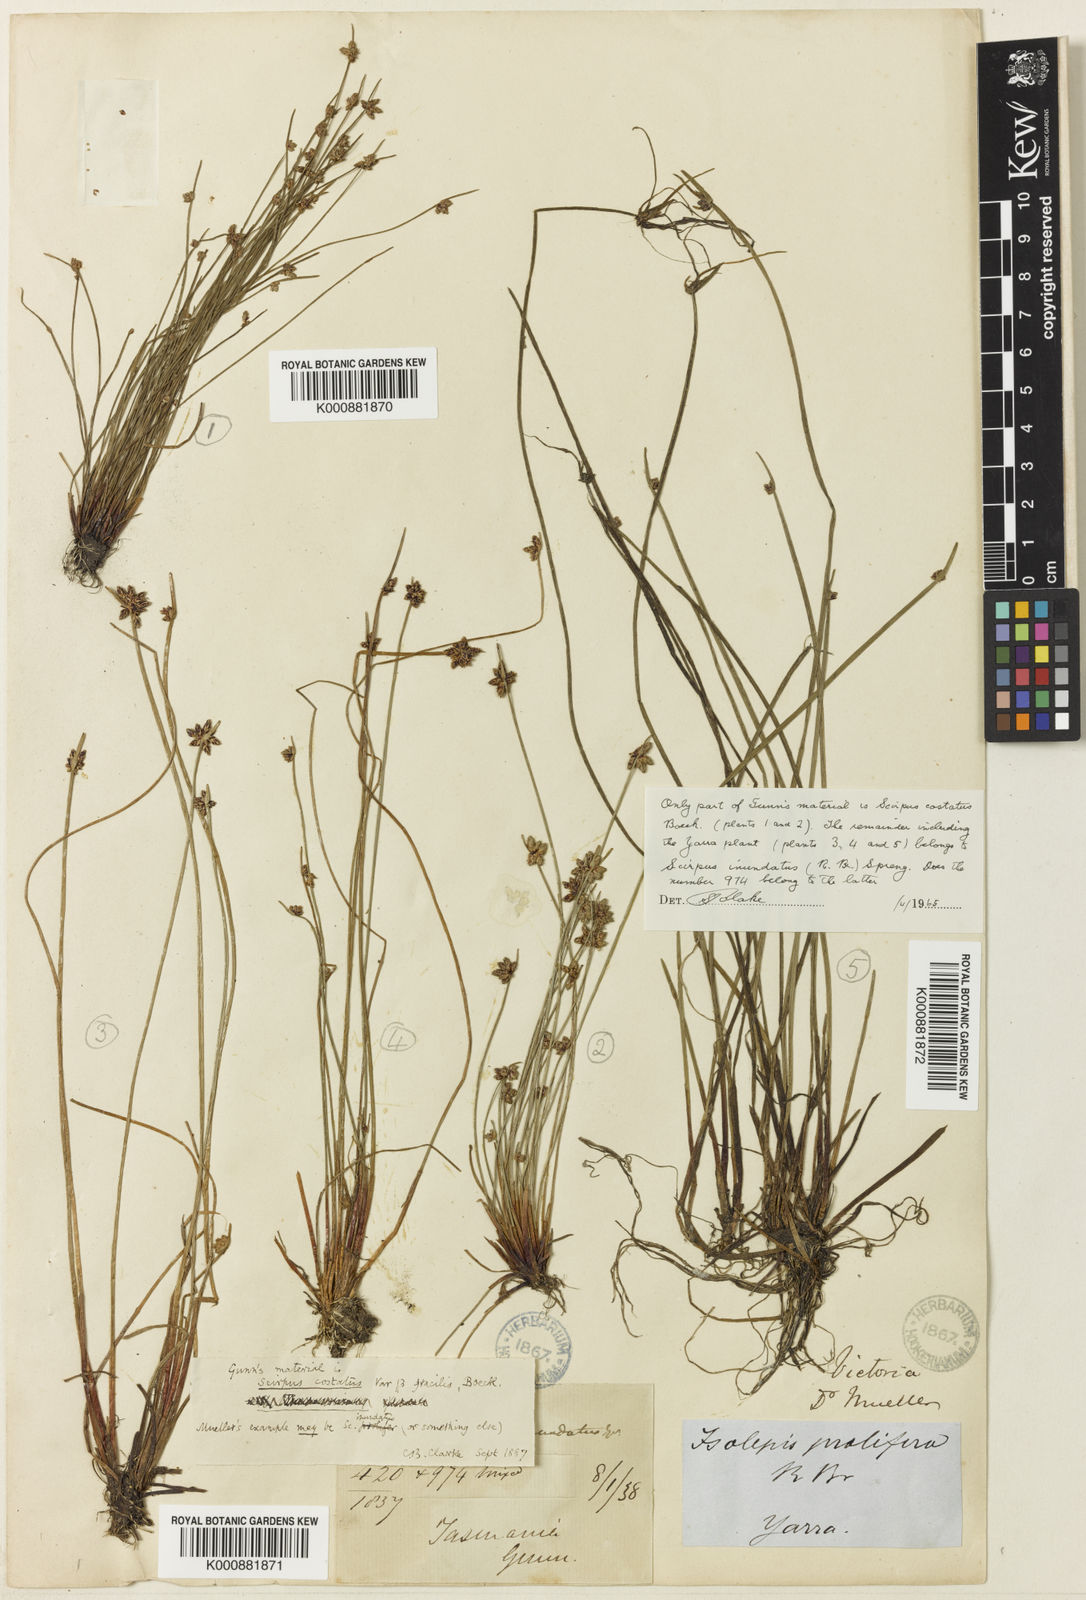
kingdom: Plantae
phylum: Tracheophyta
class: Liliopsida
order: Poales
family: Cyperaceae
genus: Isolepis
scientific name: Isolepis costata
